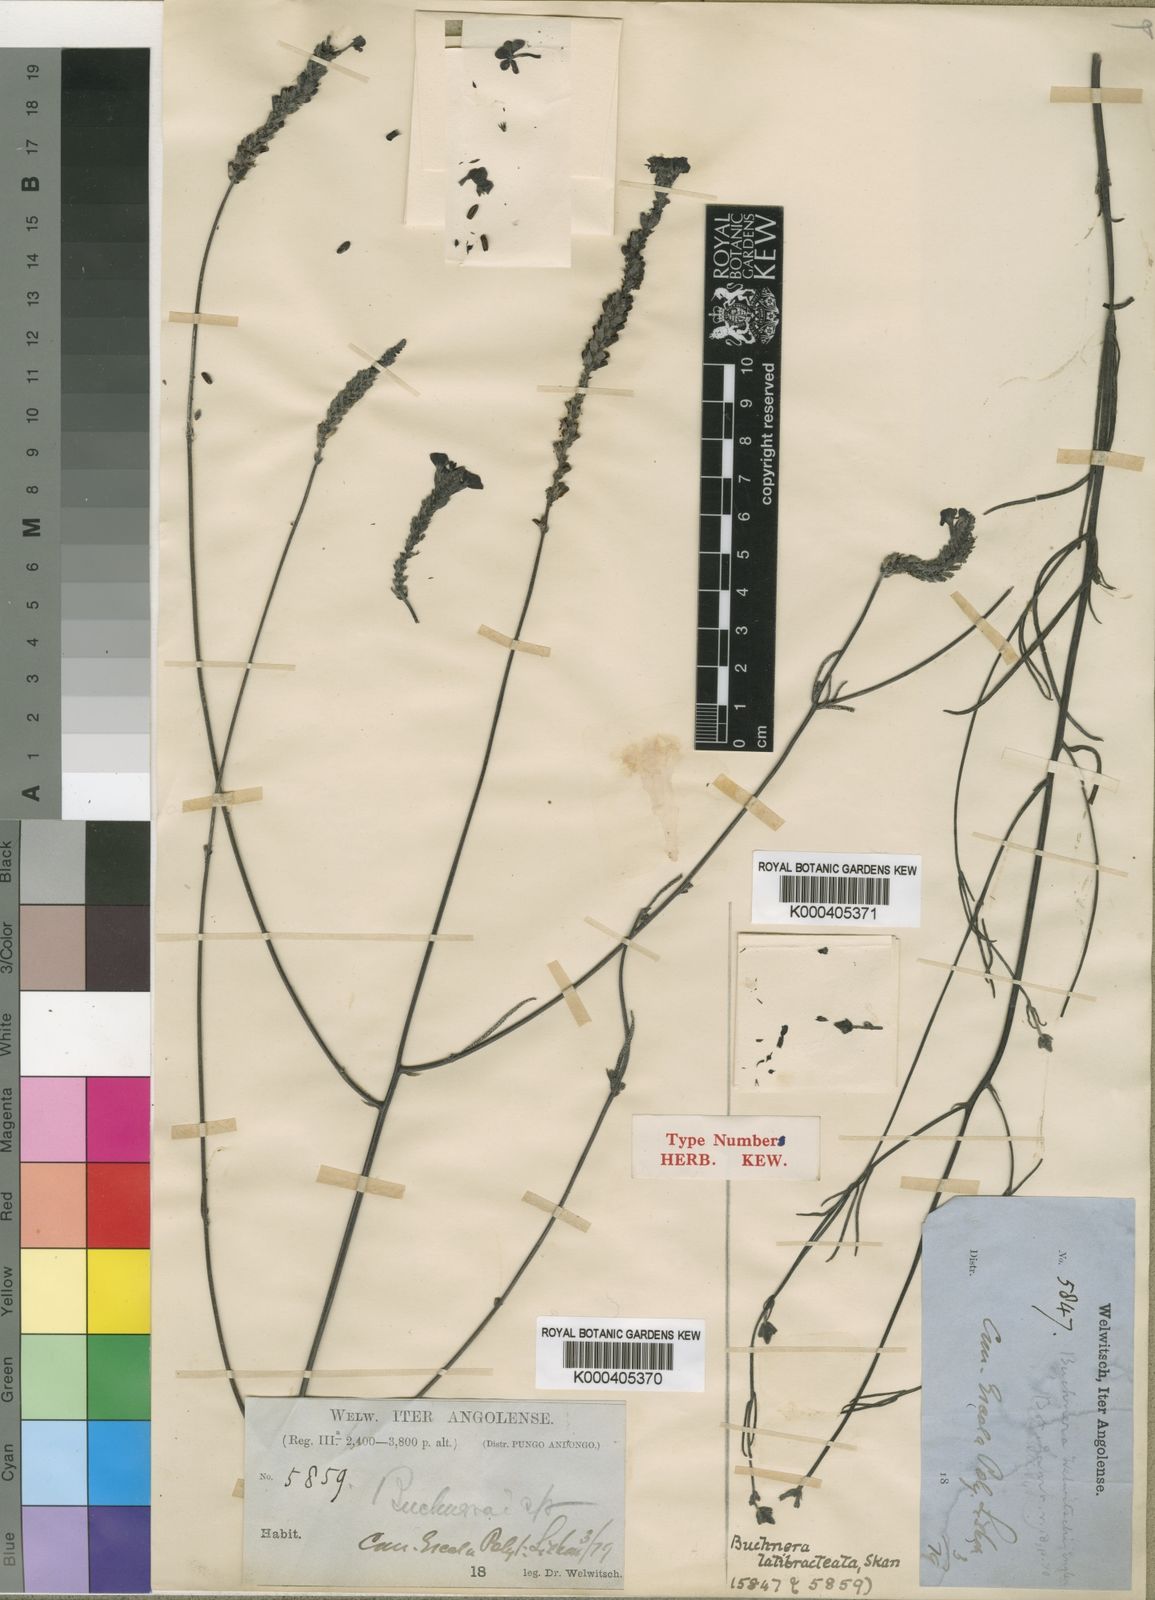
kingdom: Plantae
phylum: Tracheophyta
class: Magnoliopsida
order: Lamiales
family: Orobanchaceae
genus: Buchnera
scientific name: Buchnera welwitschii
